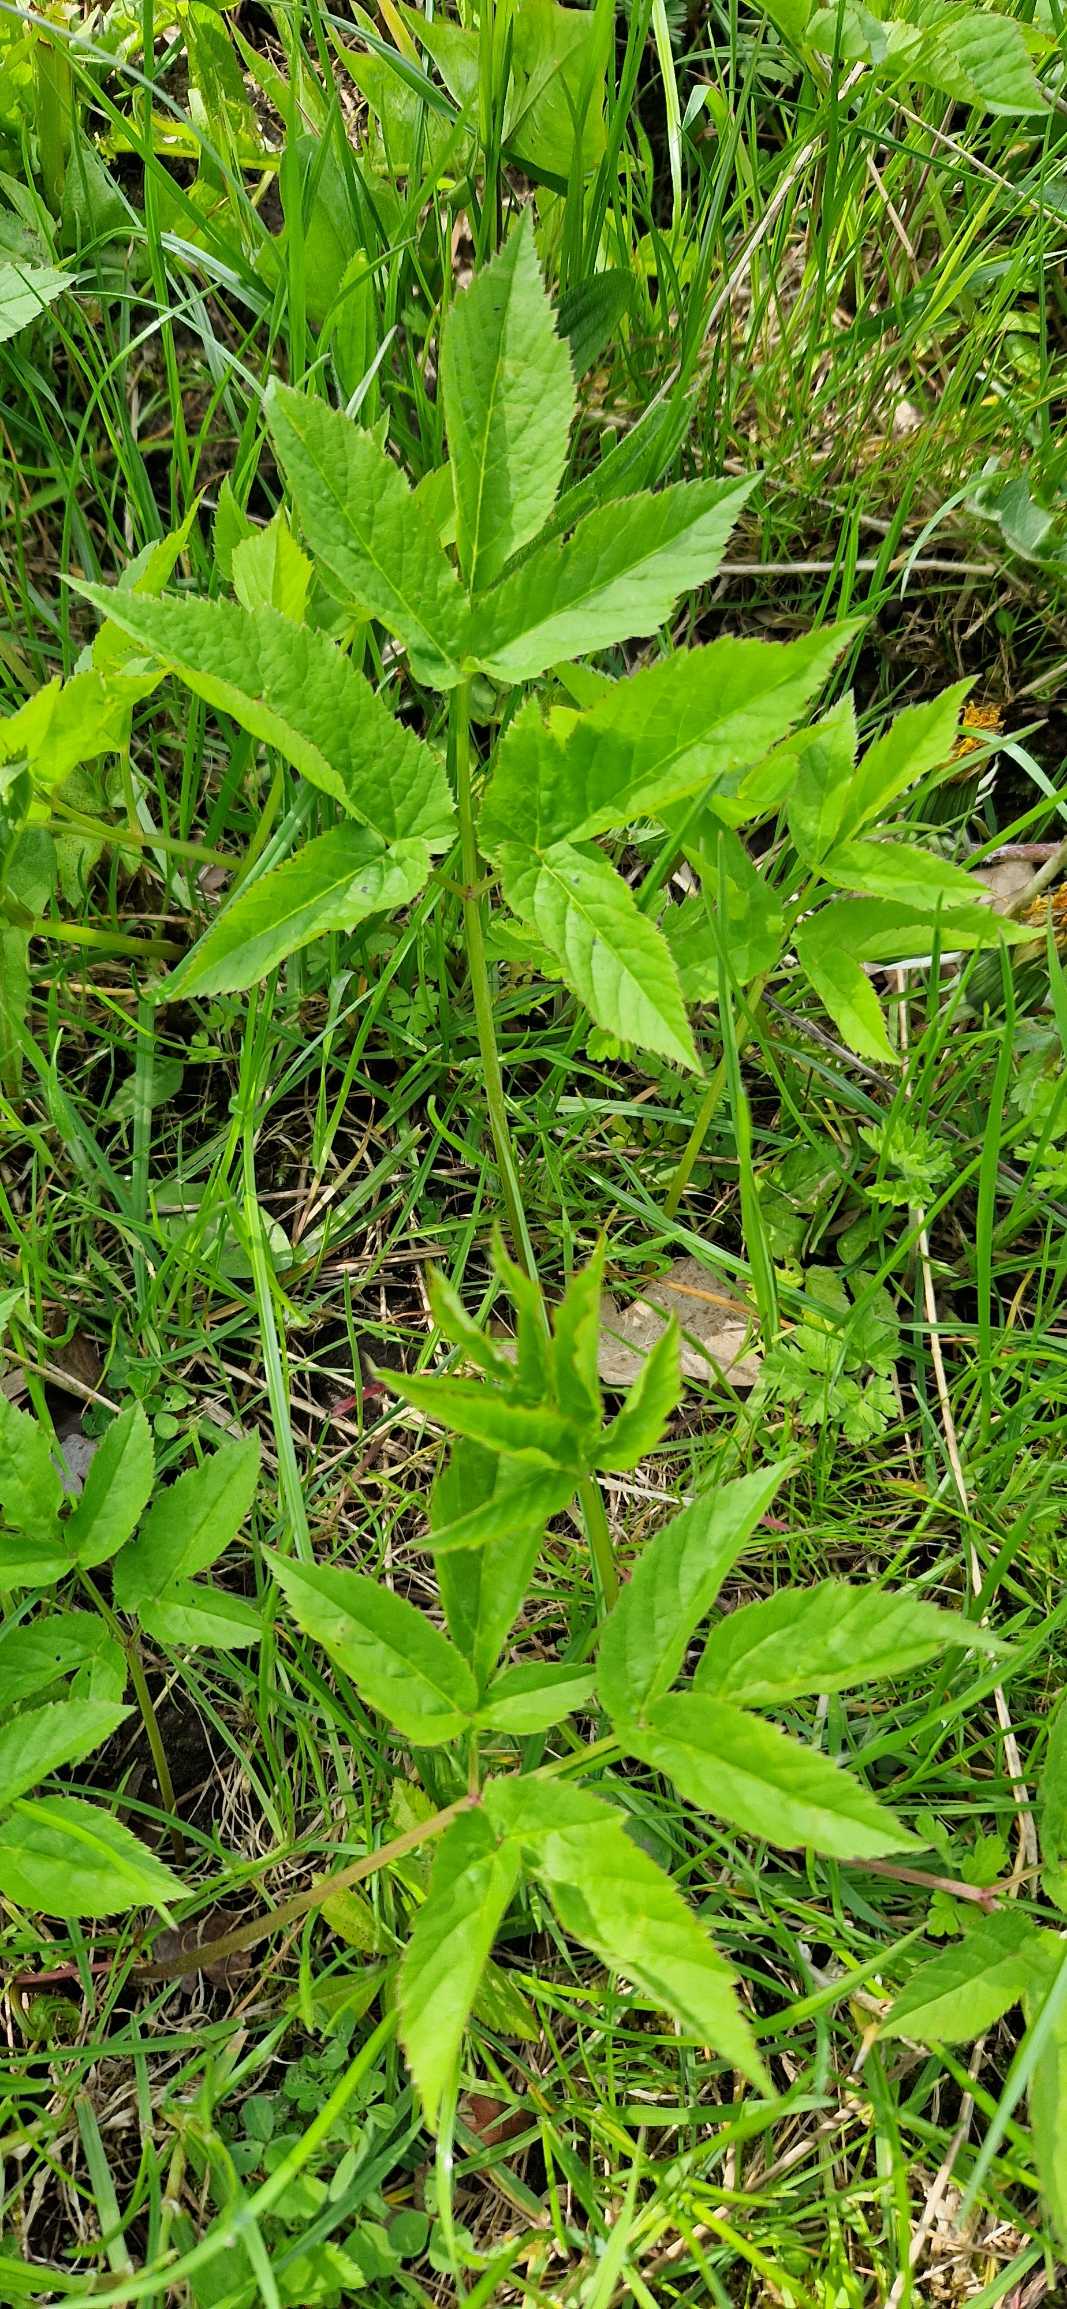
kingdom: Plantae
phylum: Tracheophyta
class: Magnoliopsida
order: Apiales
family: Apiaceae
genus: Aegopodium
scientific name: Aegopodium podagraria
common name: Skvalderkål
